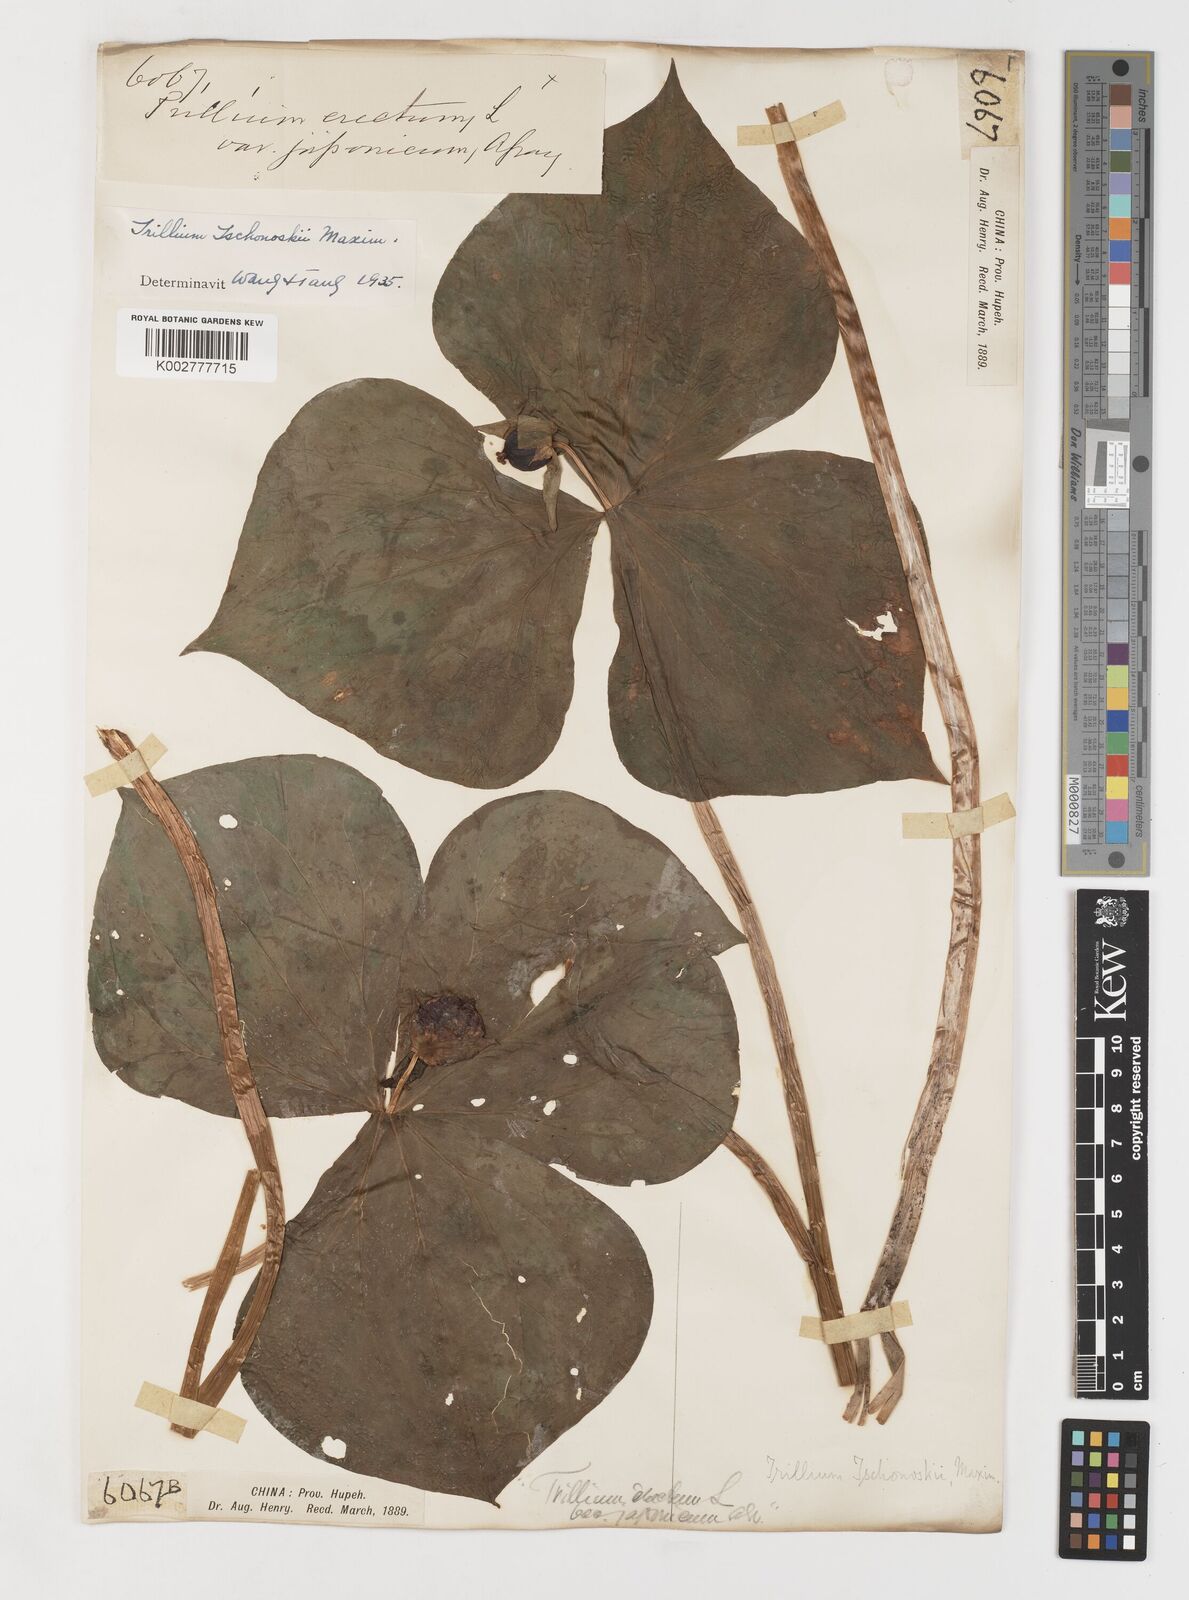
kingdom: Plantae
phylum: Tracheophyta
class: Liliopsida
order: Liliales
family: Melanthiaceae
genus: Trillium
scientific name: Trillium tschonoskii
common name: A pearl on head
